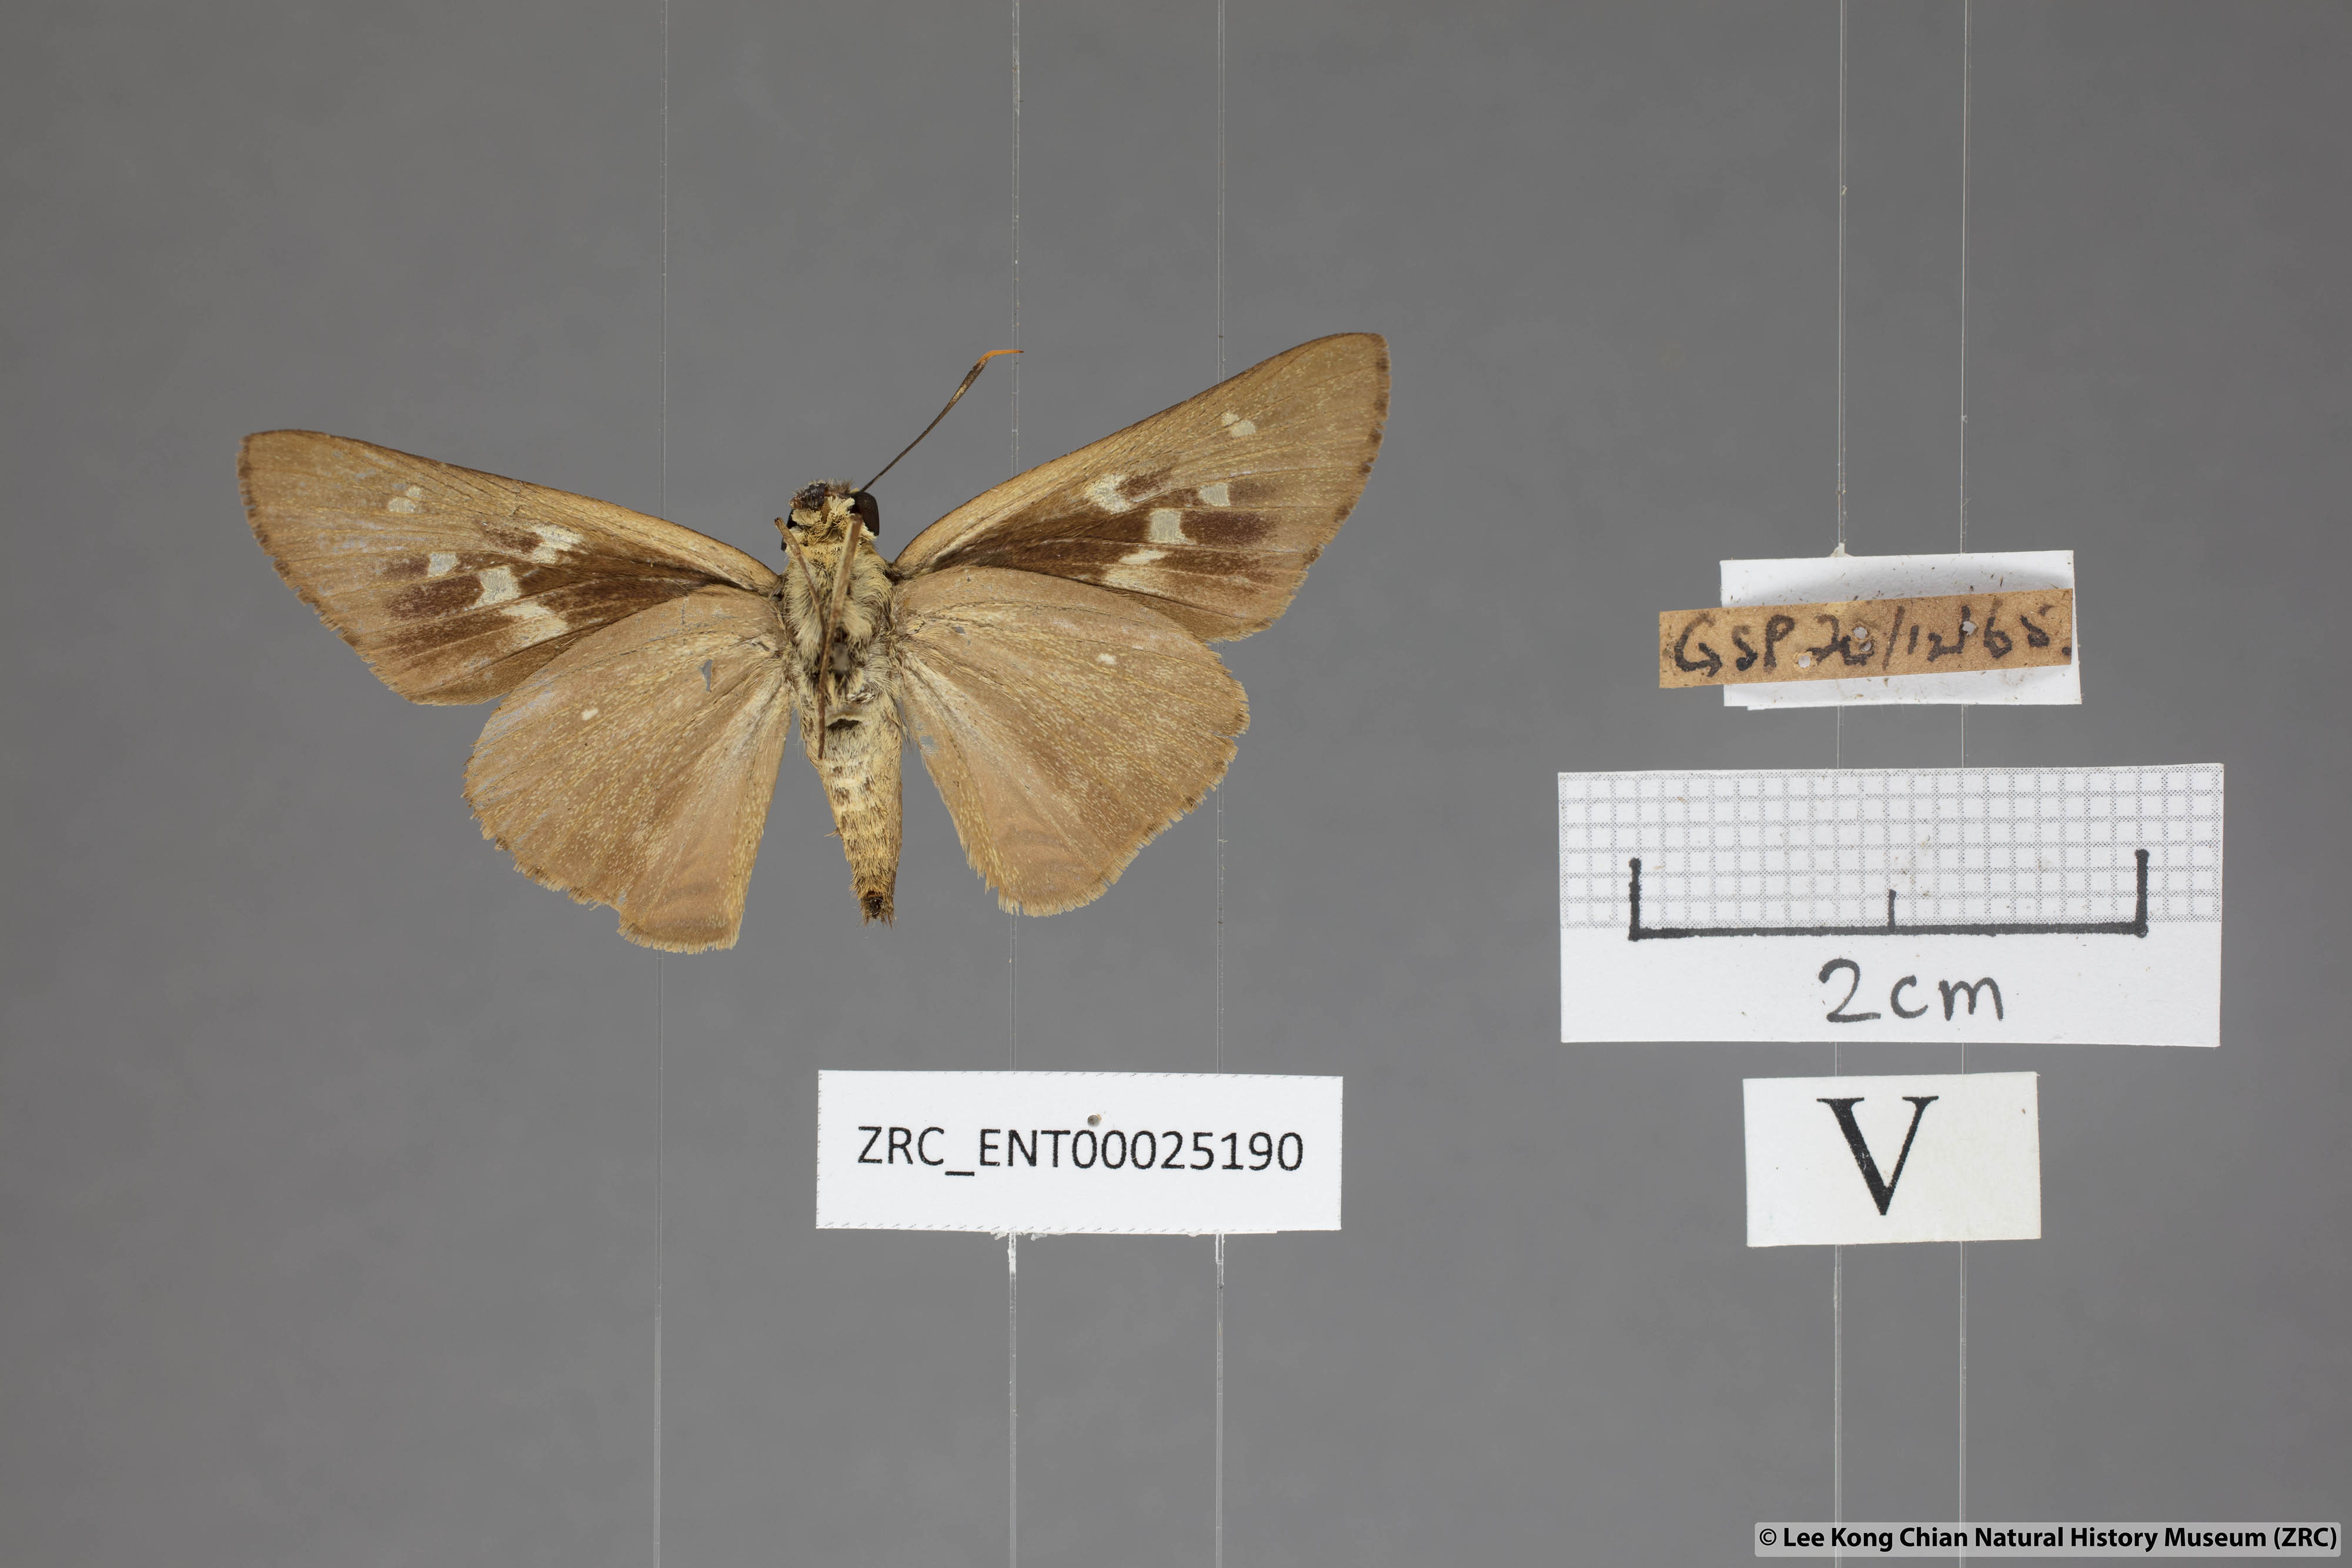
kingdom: Animalia
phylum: Arthropoda
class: Insecta
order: Lepidoptera
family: Hesperiidae
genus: Pithauria
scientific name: Pithauria stramineipennis
